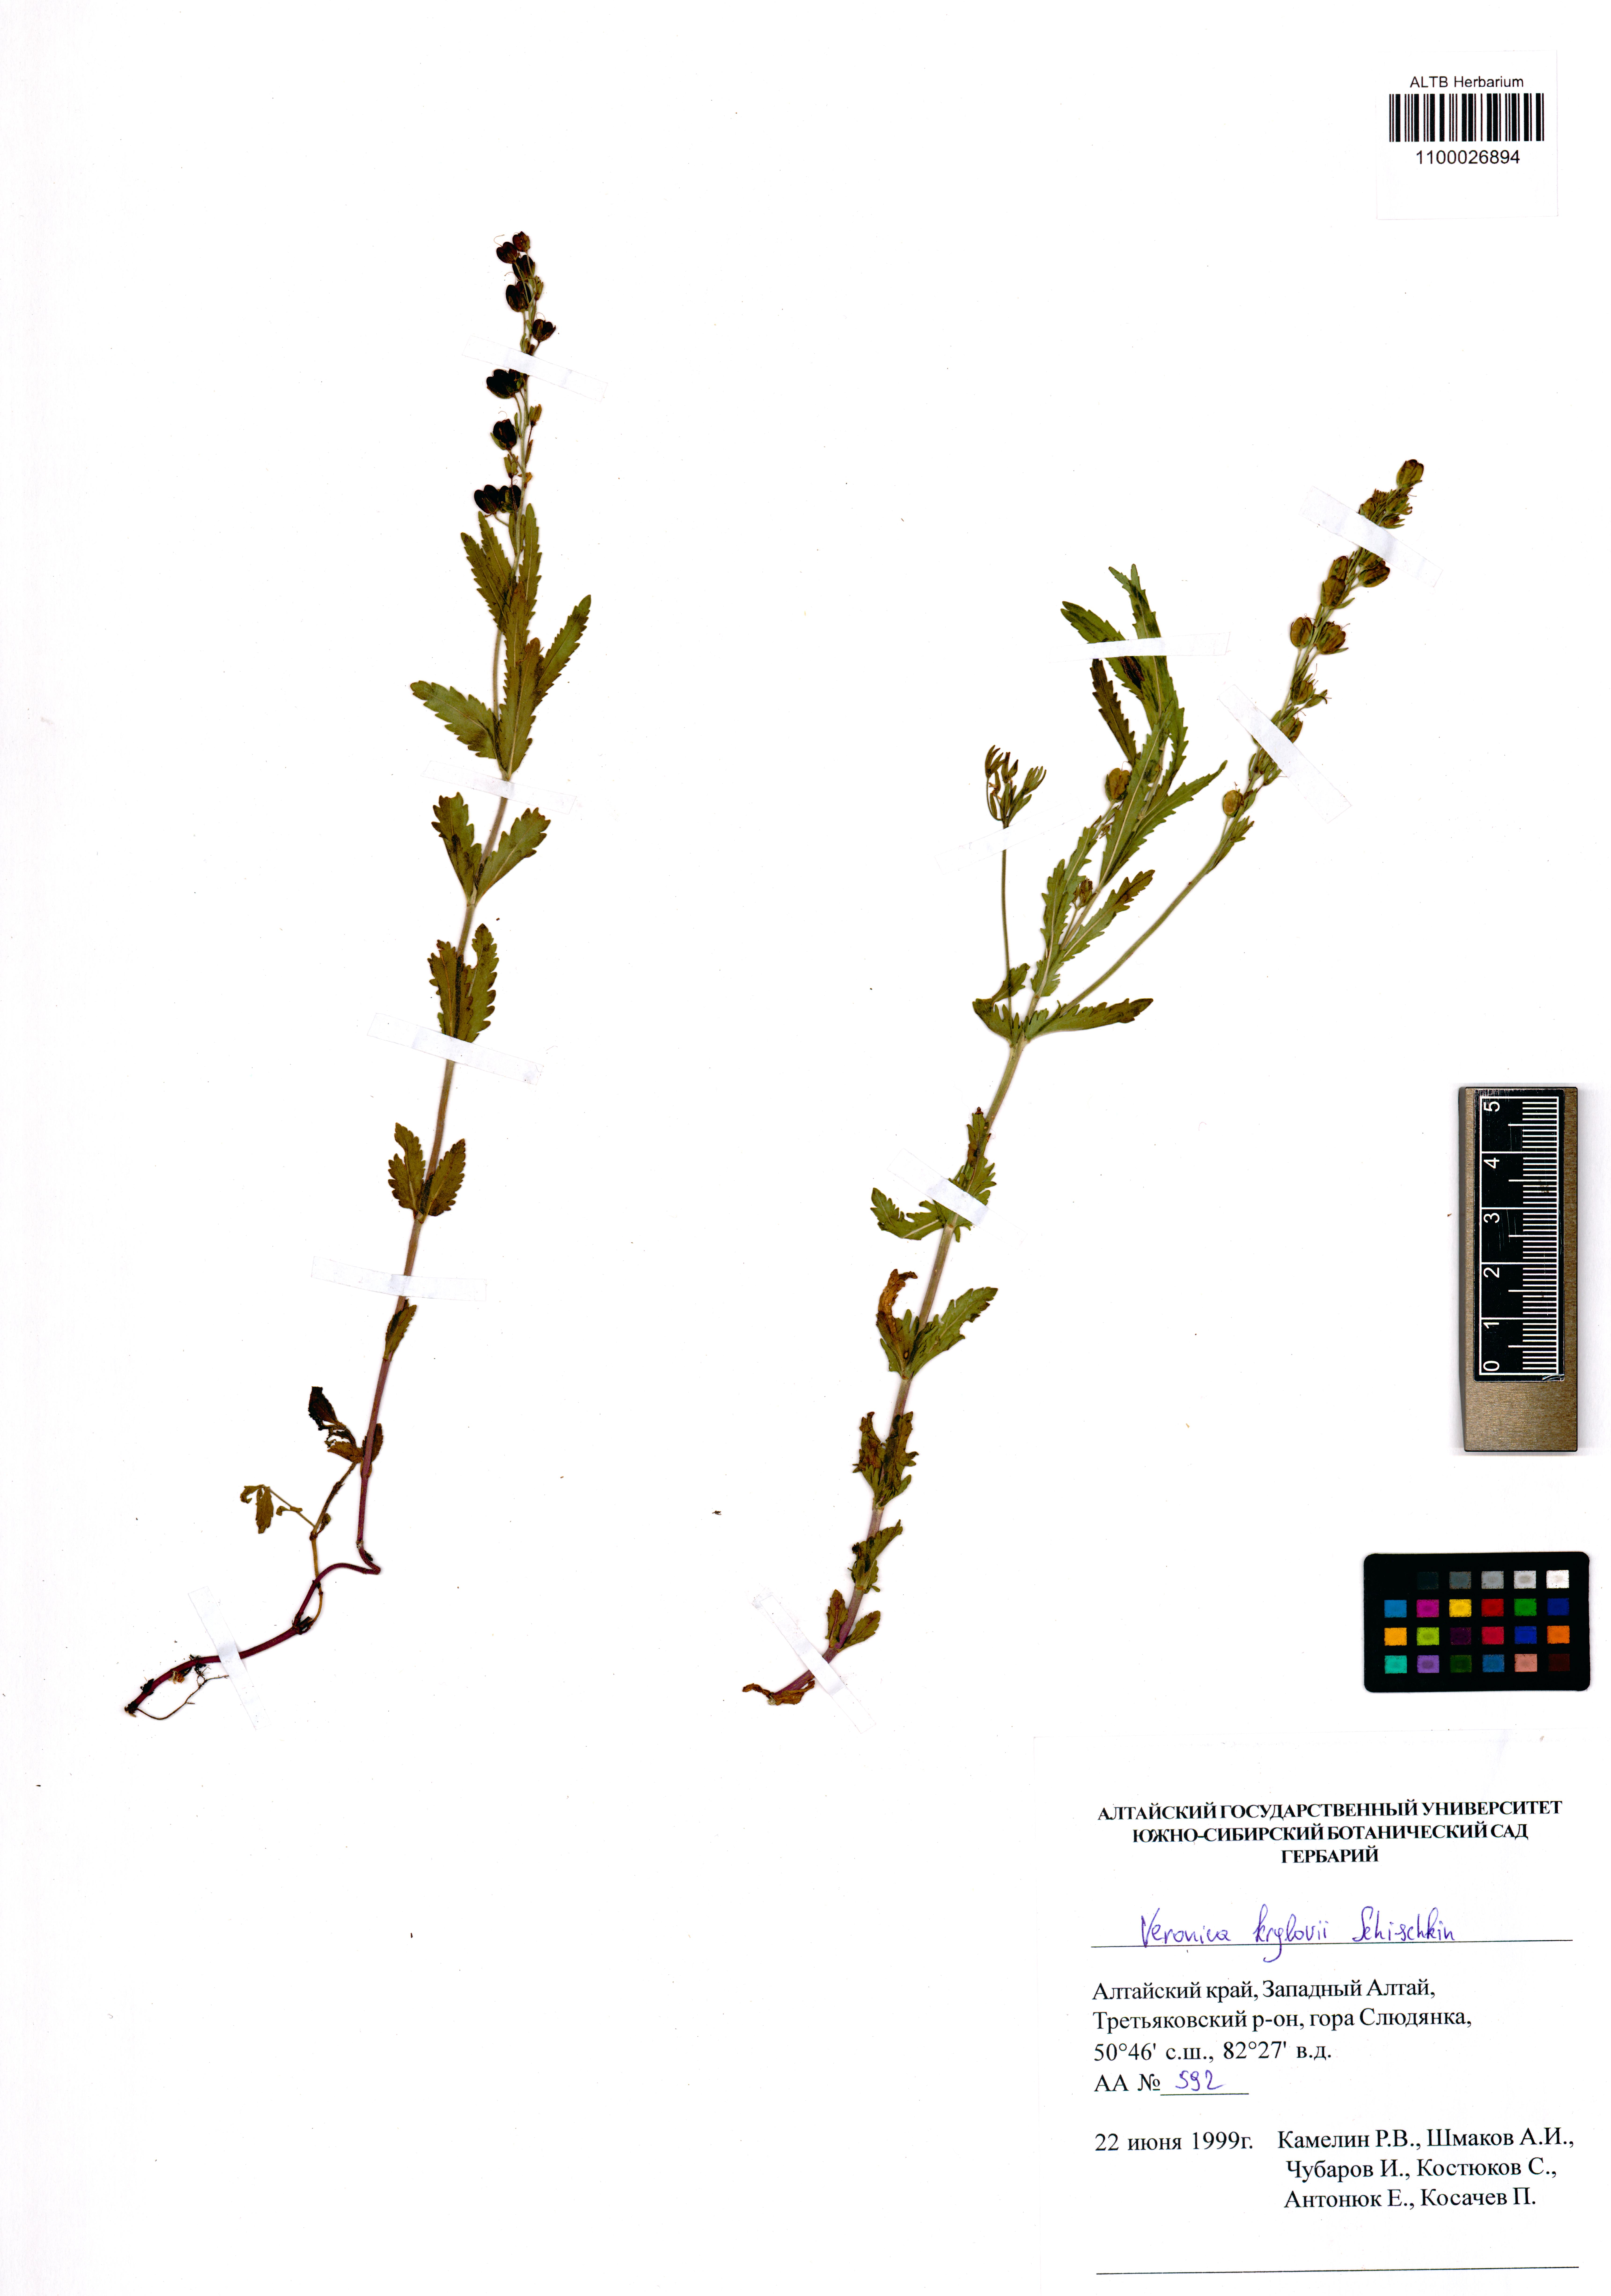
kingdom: Plantae
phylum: Tracheophyta
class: Magnoliopsida
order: Lamiales
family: Plantaginaceae
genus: Veronica
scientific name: Veronica krylovii
